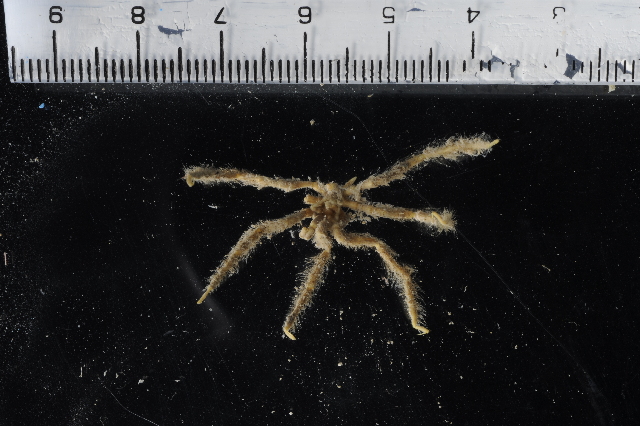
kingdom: Animalia
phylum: Arthropoda
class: Pycnogonida
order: Pantopoda
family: Pallenopsidae
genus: Pallenopsis
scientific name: Pallenopsis
